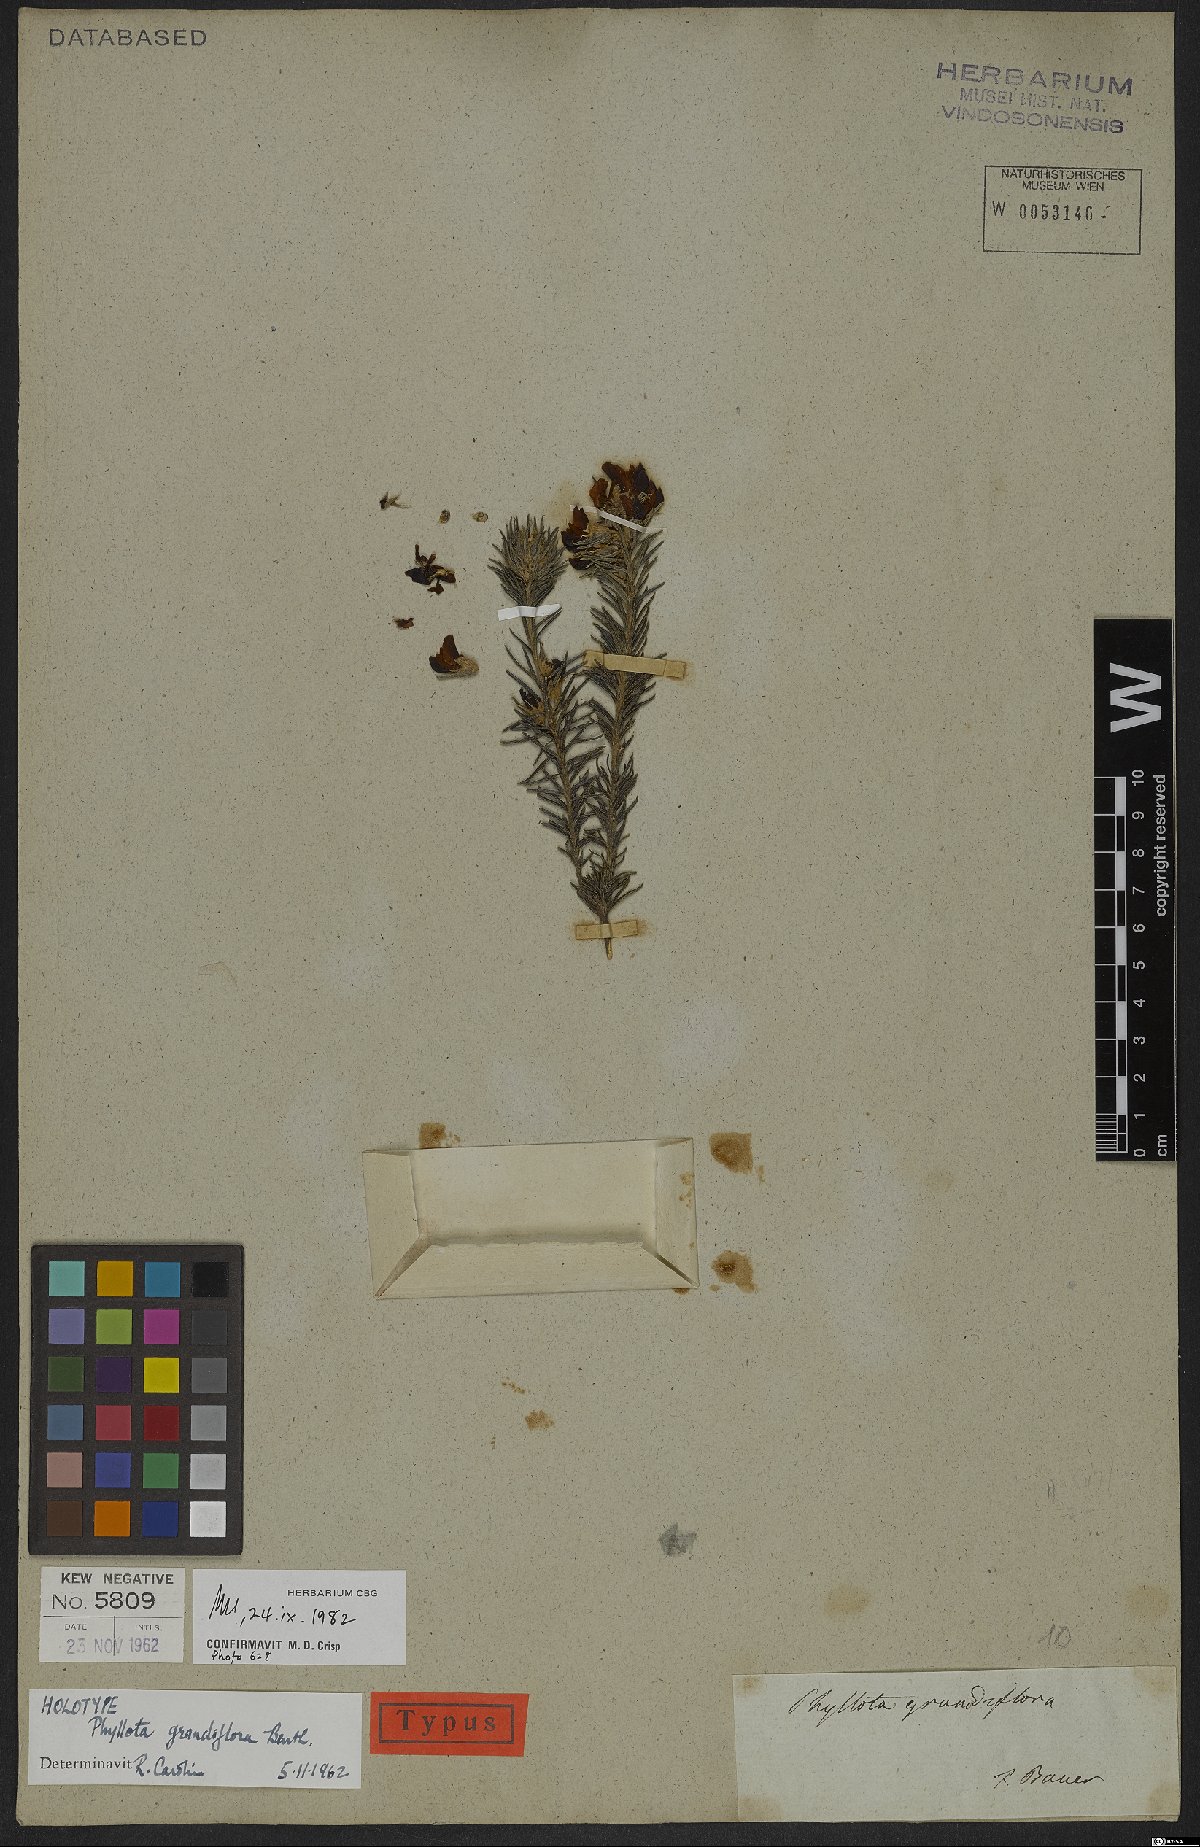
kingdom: Plantae
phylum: Tracheophyta
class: Magnoliopsida
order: Fabales
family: Fabaceae
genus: Phyllota
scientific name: Phyllota grandiflora
